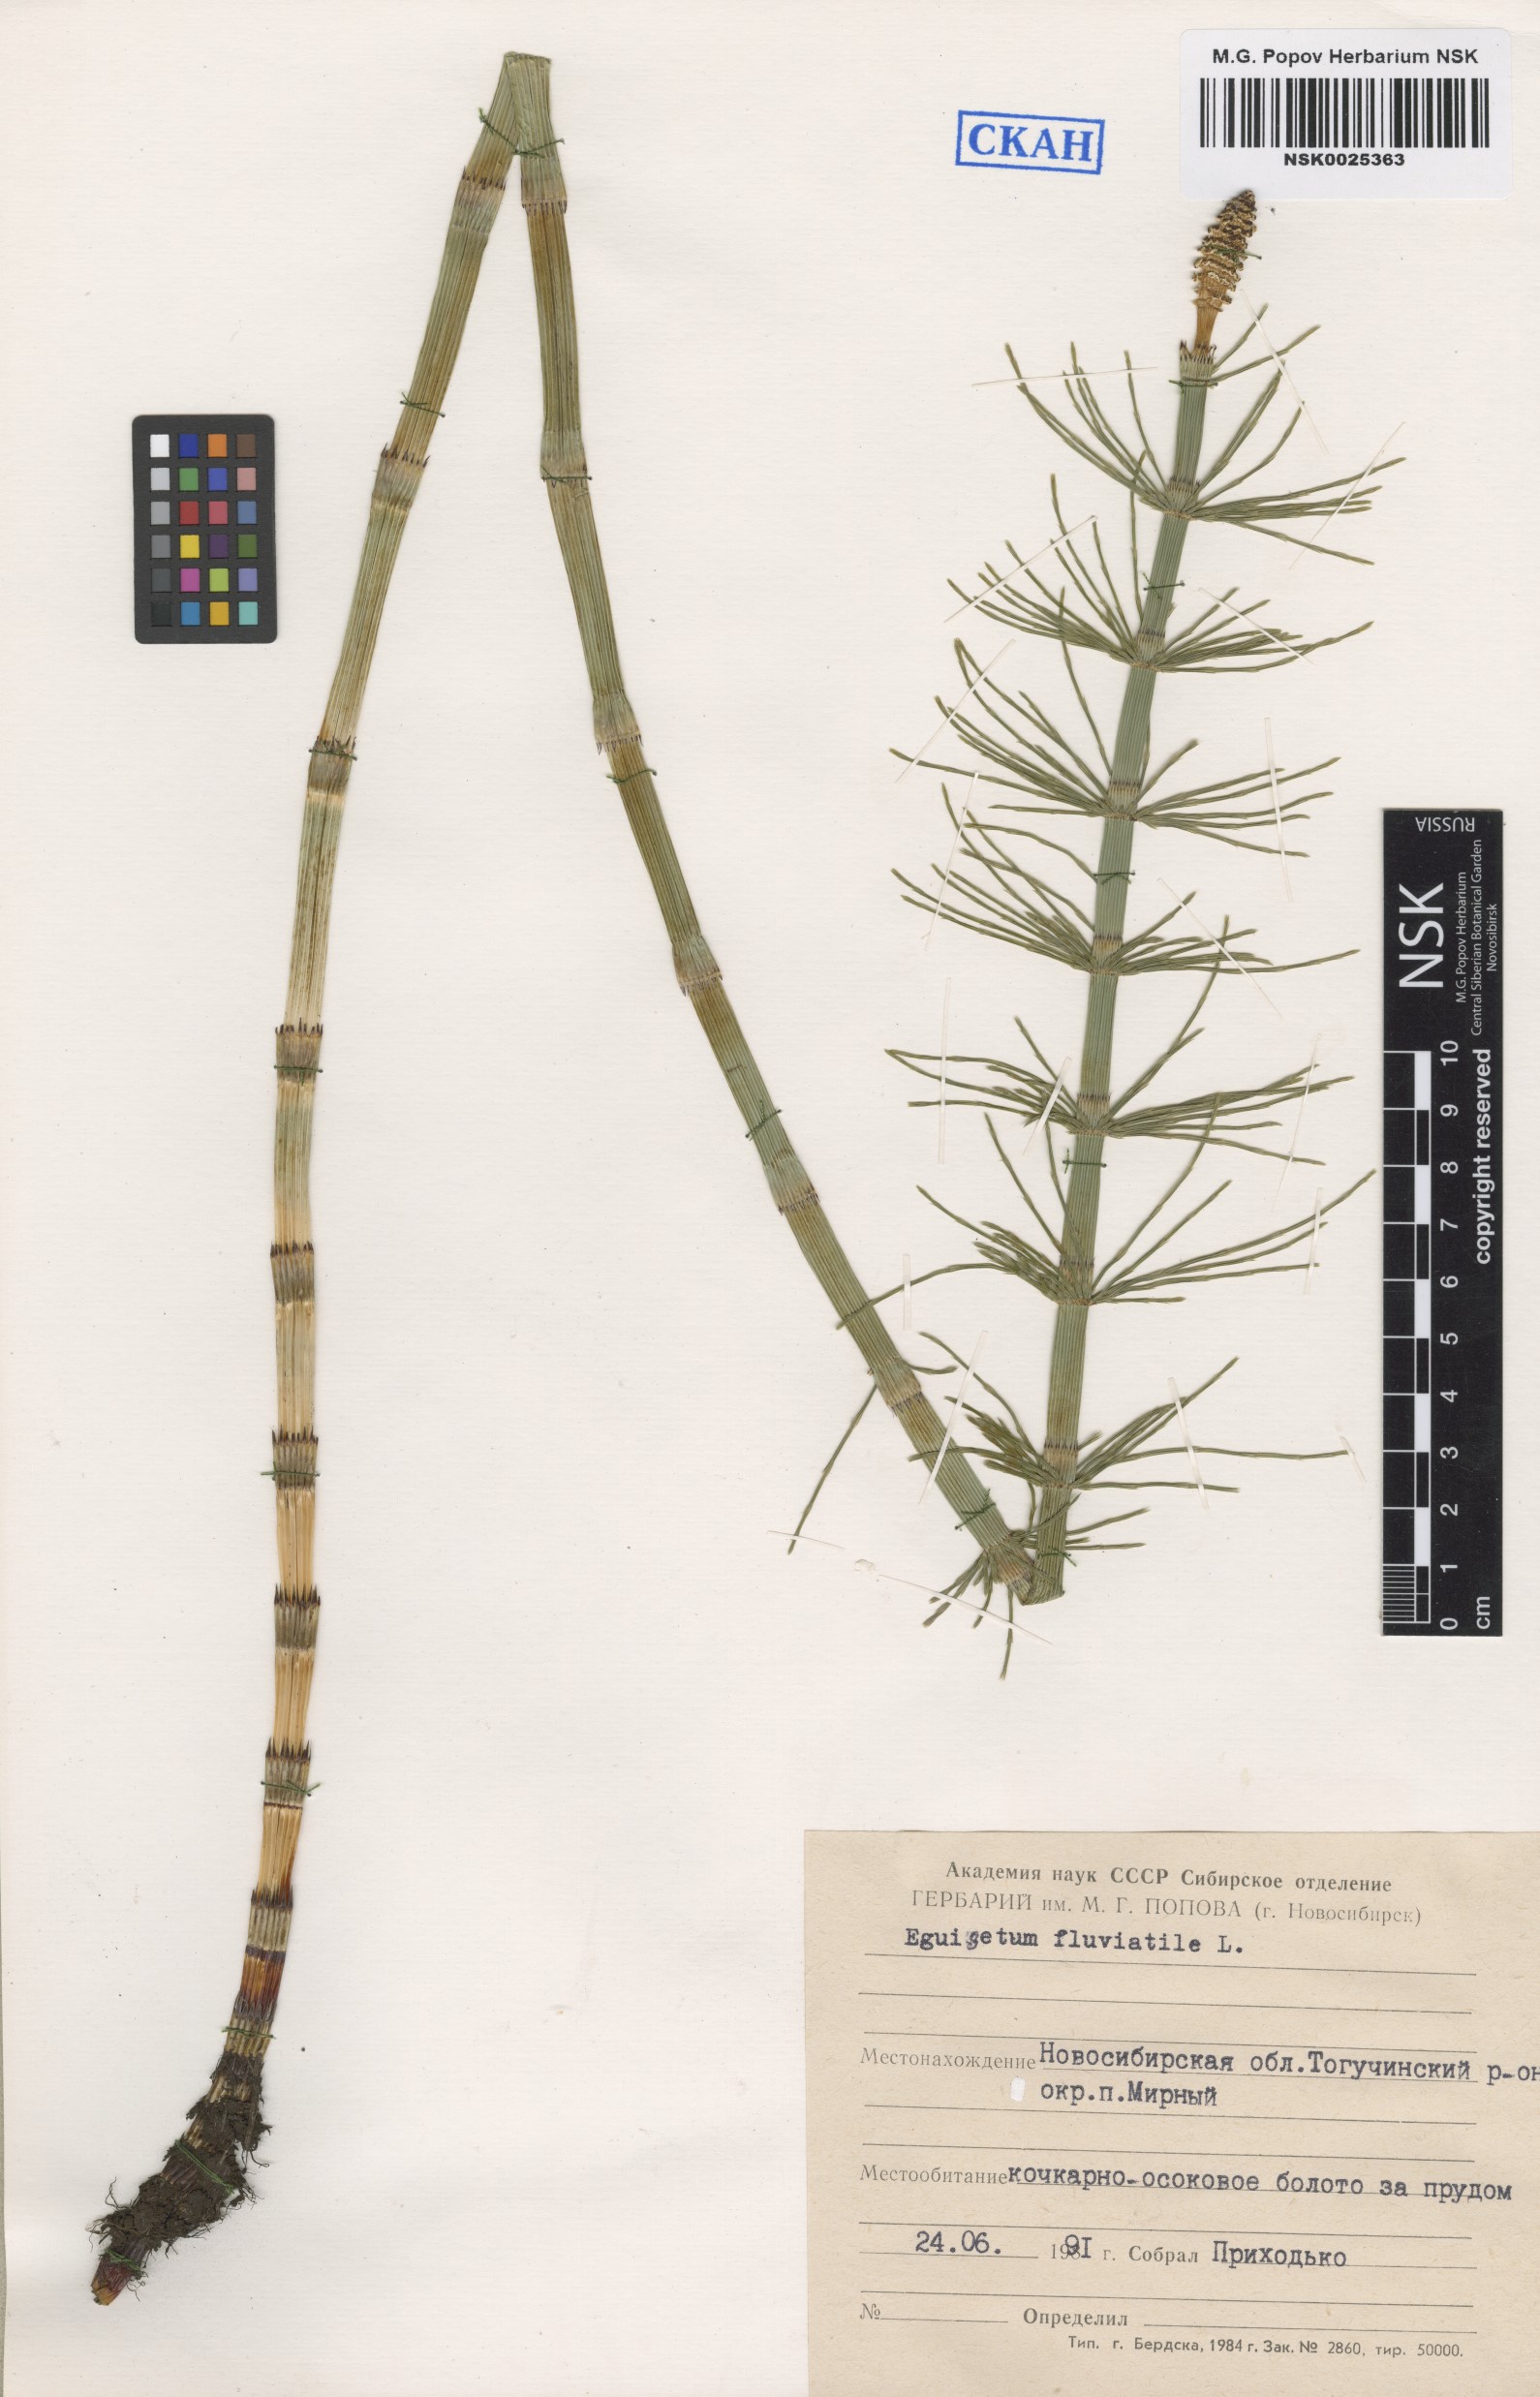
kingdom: Plantae
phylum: Tracheophyta
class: Polypodiopsida
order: Equisetales
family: Equisetaceae
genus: Equisetum
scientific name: Equisetum fluviatile
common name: Water horsetail
